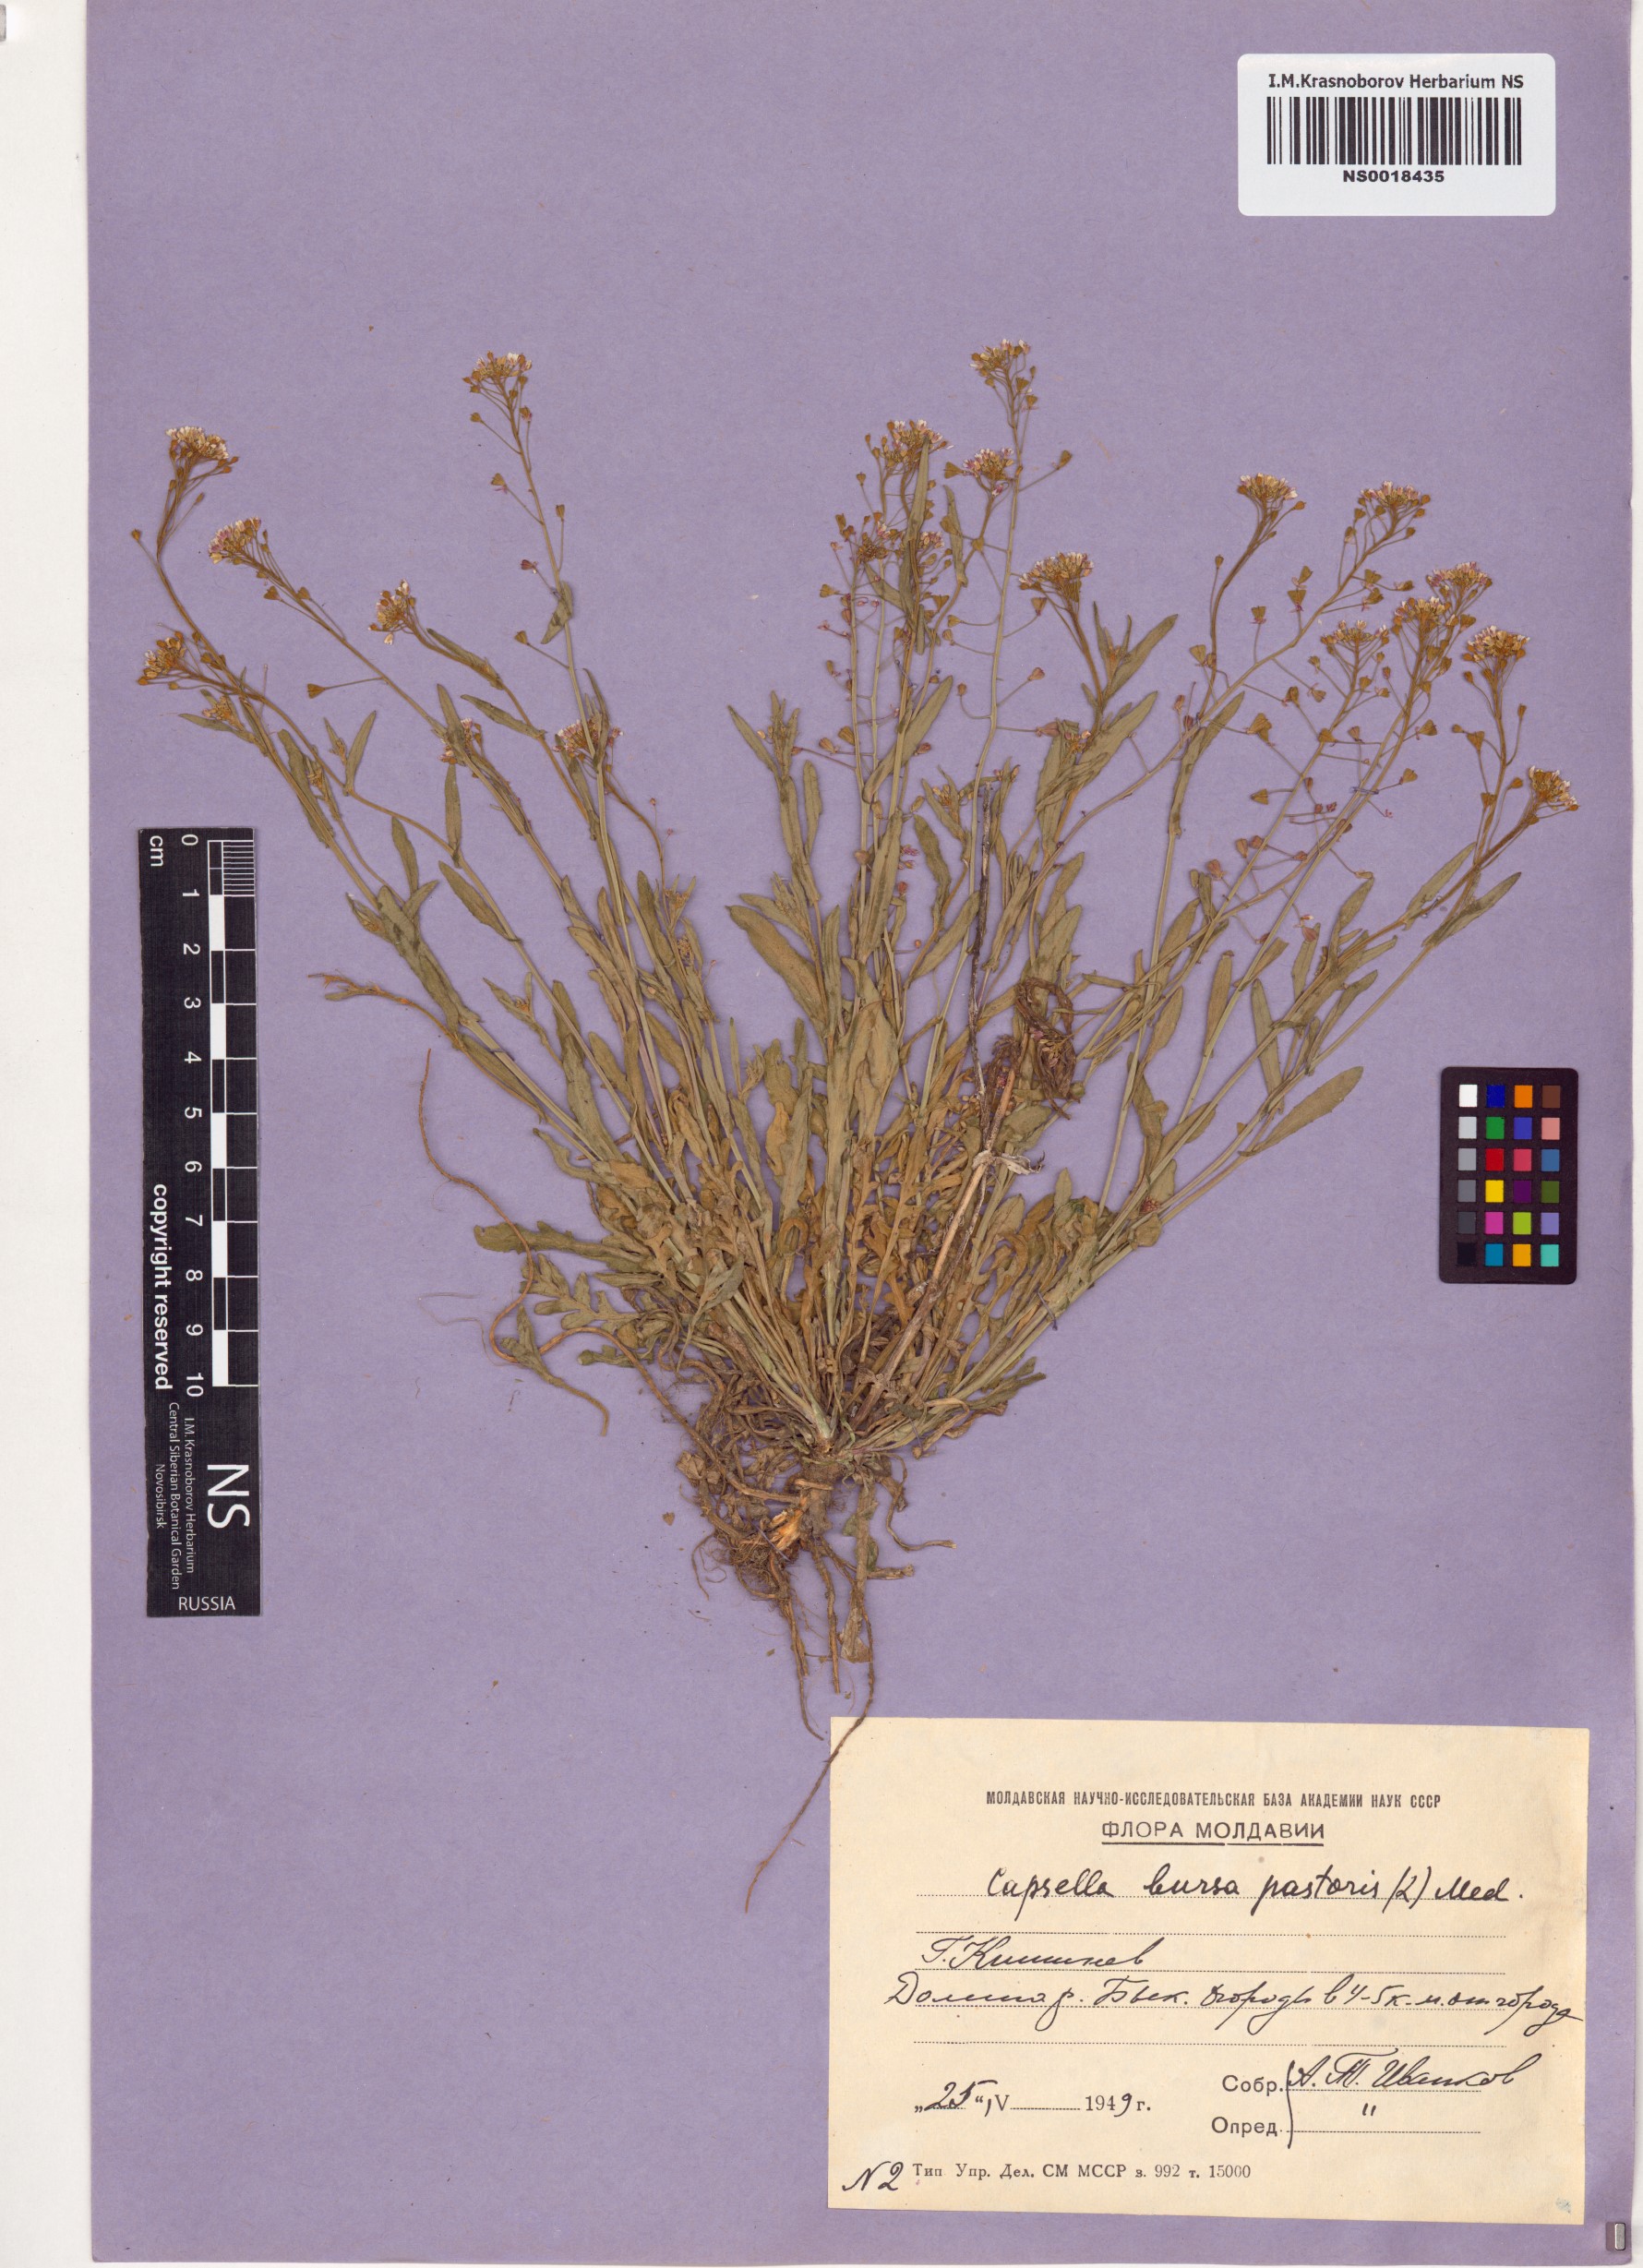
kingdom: Plantae
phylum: Tracheophyta
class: Magnoliopsida
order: Brassicales
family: Brassicaceae
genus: Capsella
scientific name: Capsella bursa-pastoris
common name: Shepherd's purse
